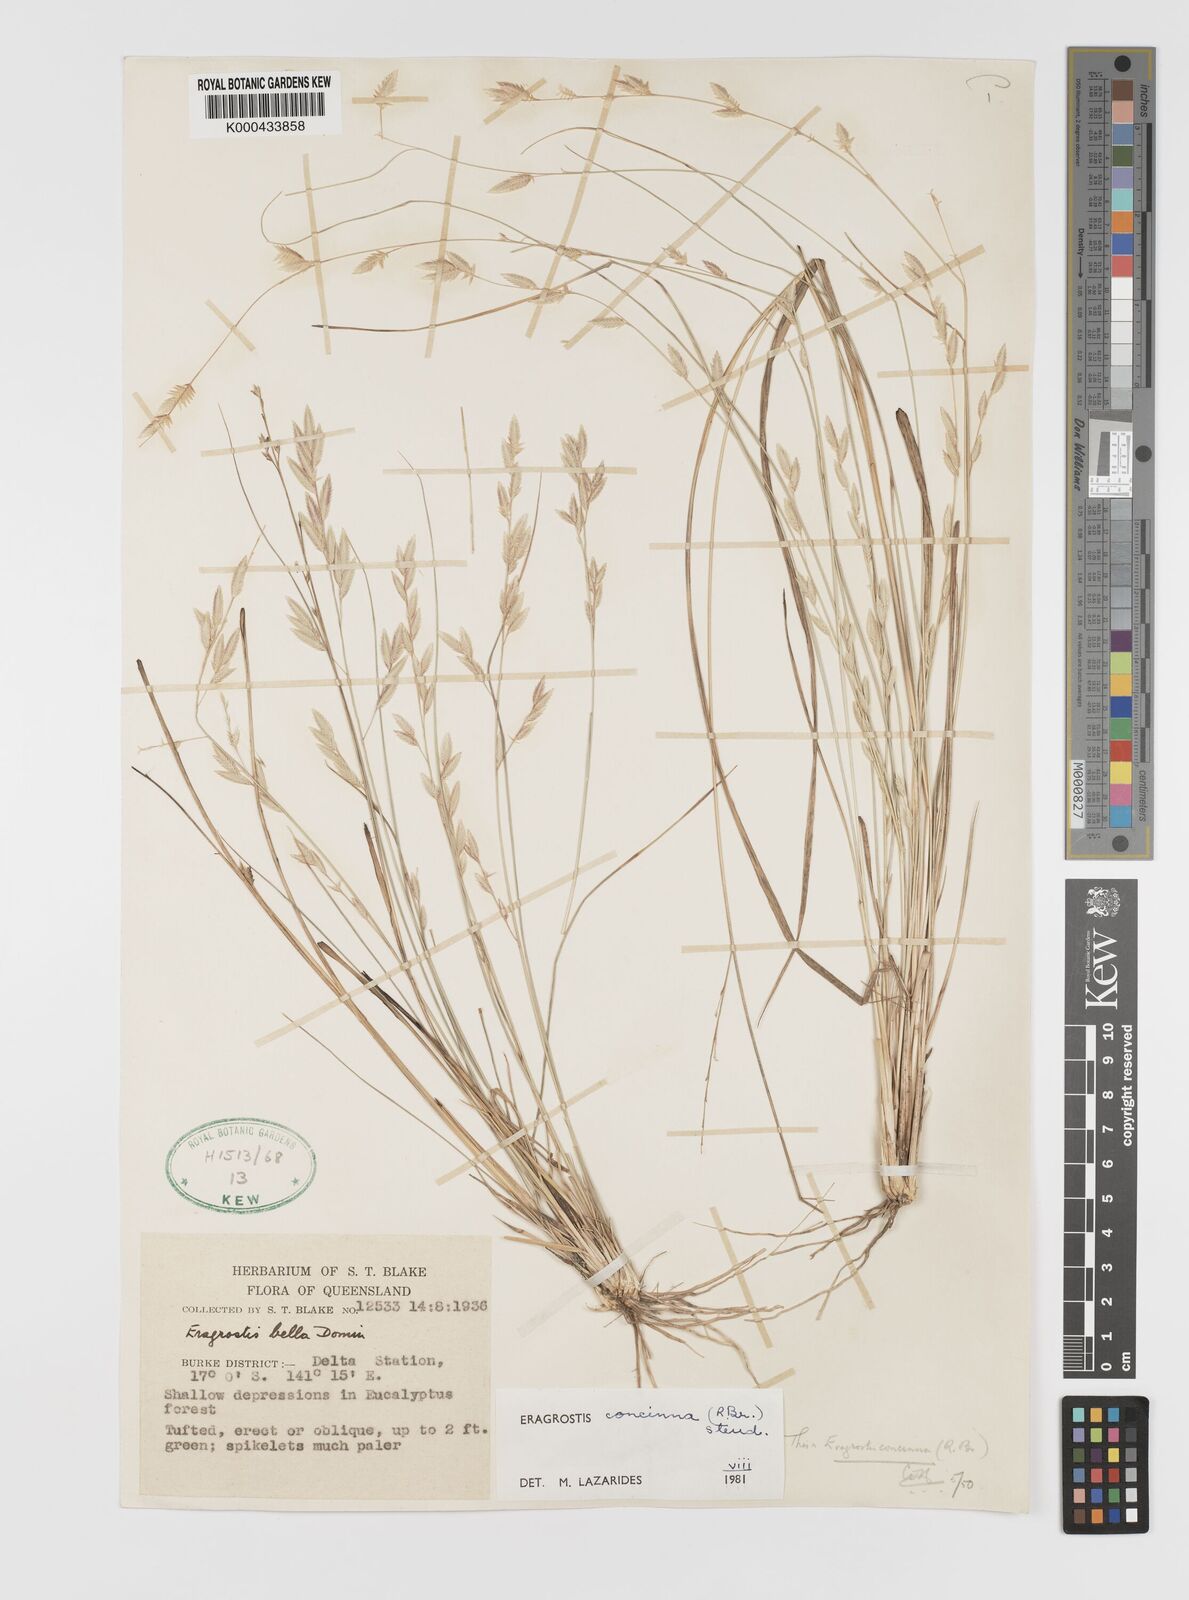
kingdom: Plantae
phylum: Tracheophyta
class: Liliopsida
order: Poales
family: Poaceae
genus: Eragrostis
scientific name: Eragrostis concinna
